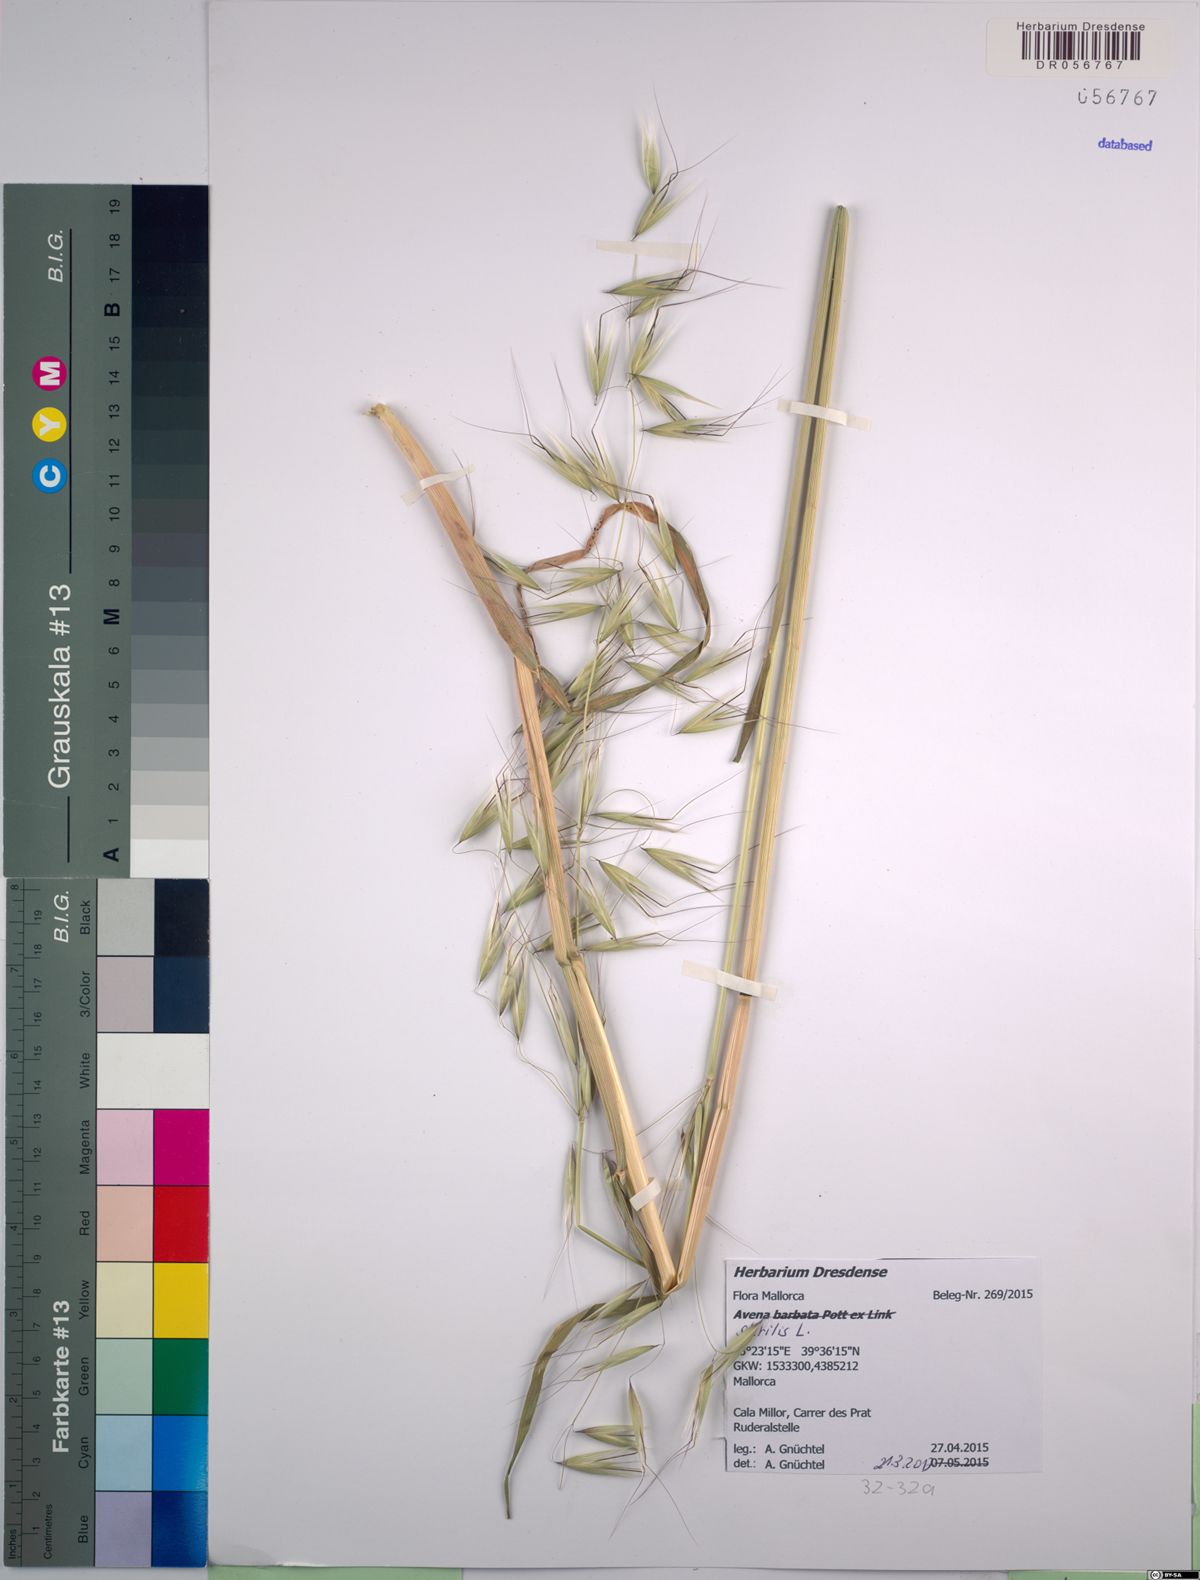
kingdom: Plantae
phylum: Tracheophyta
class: Liliopsida
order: Poales
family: Poaceae
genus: Avena
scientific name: Avena sterilis
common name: Animated oat
